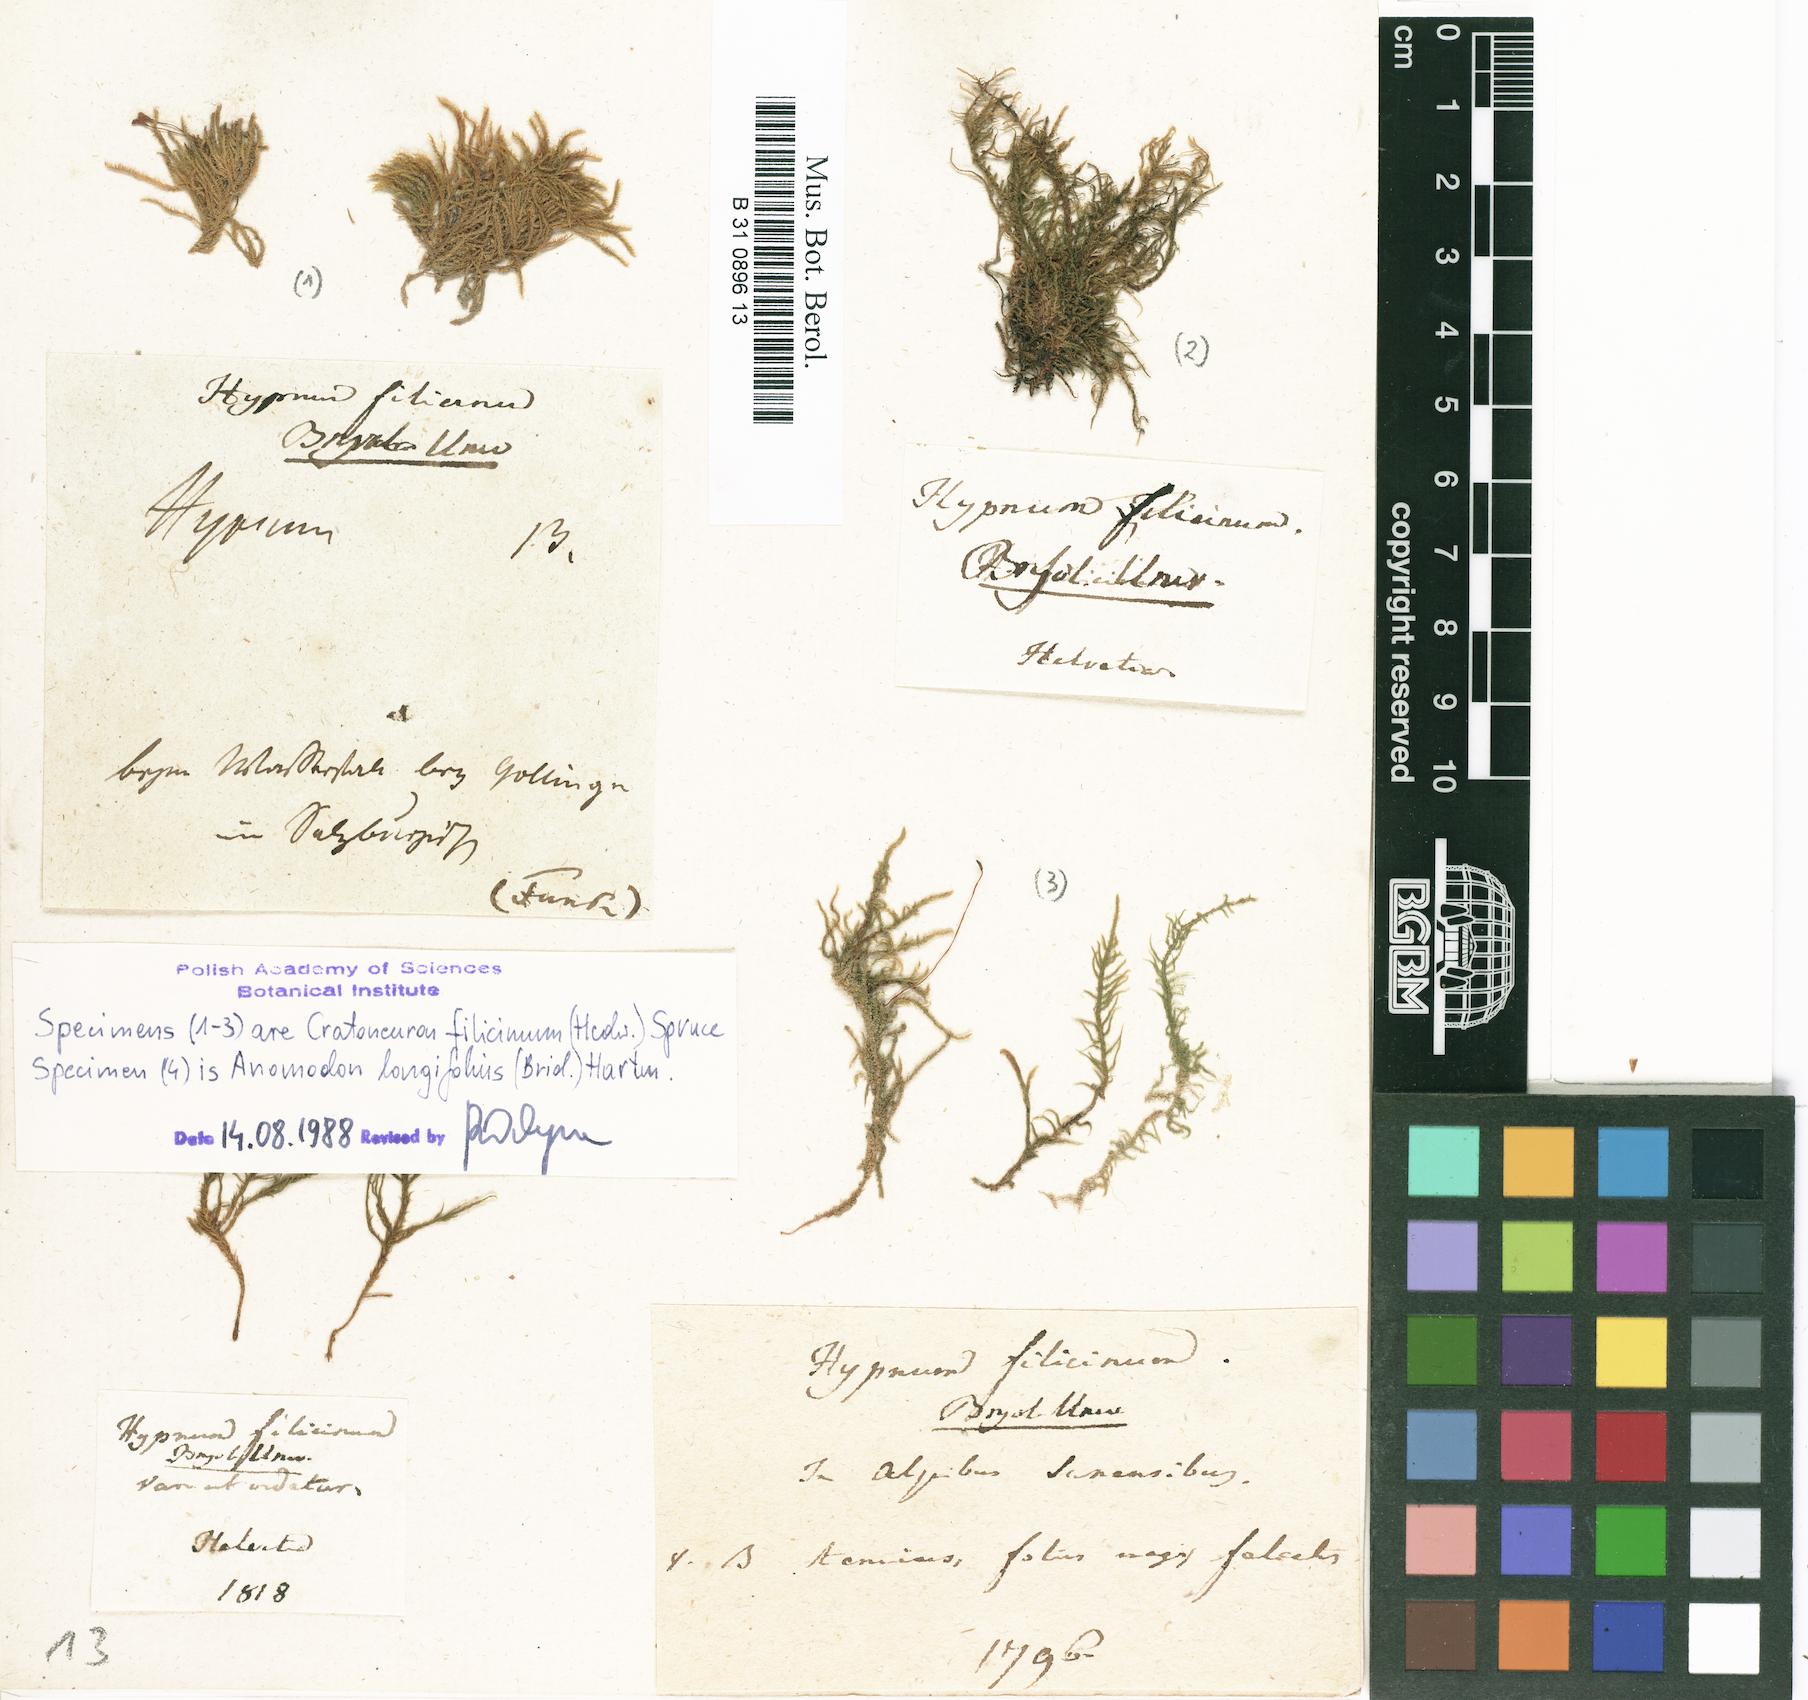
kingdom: Plantae
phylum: Bryophyta
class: Bryopsida
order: Hypnales
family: Amblystegiaceae
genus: Cratoneuron
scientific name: Cratoneuron filicinum
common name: Fern-leaved hook moss
